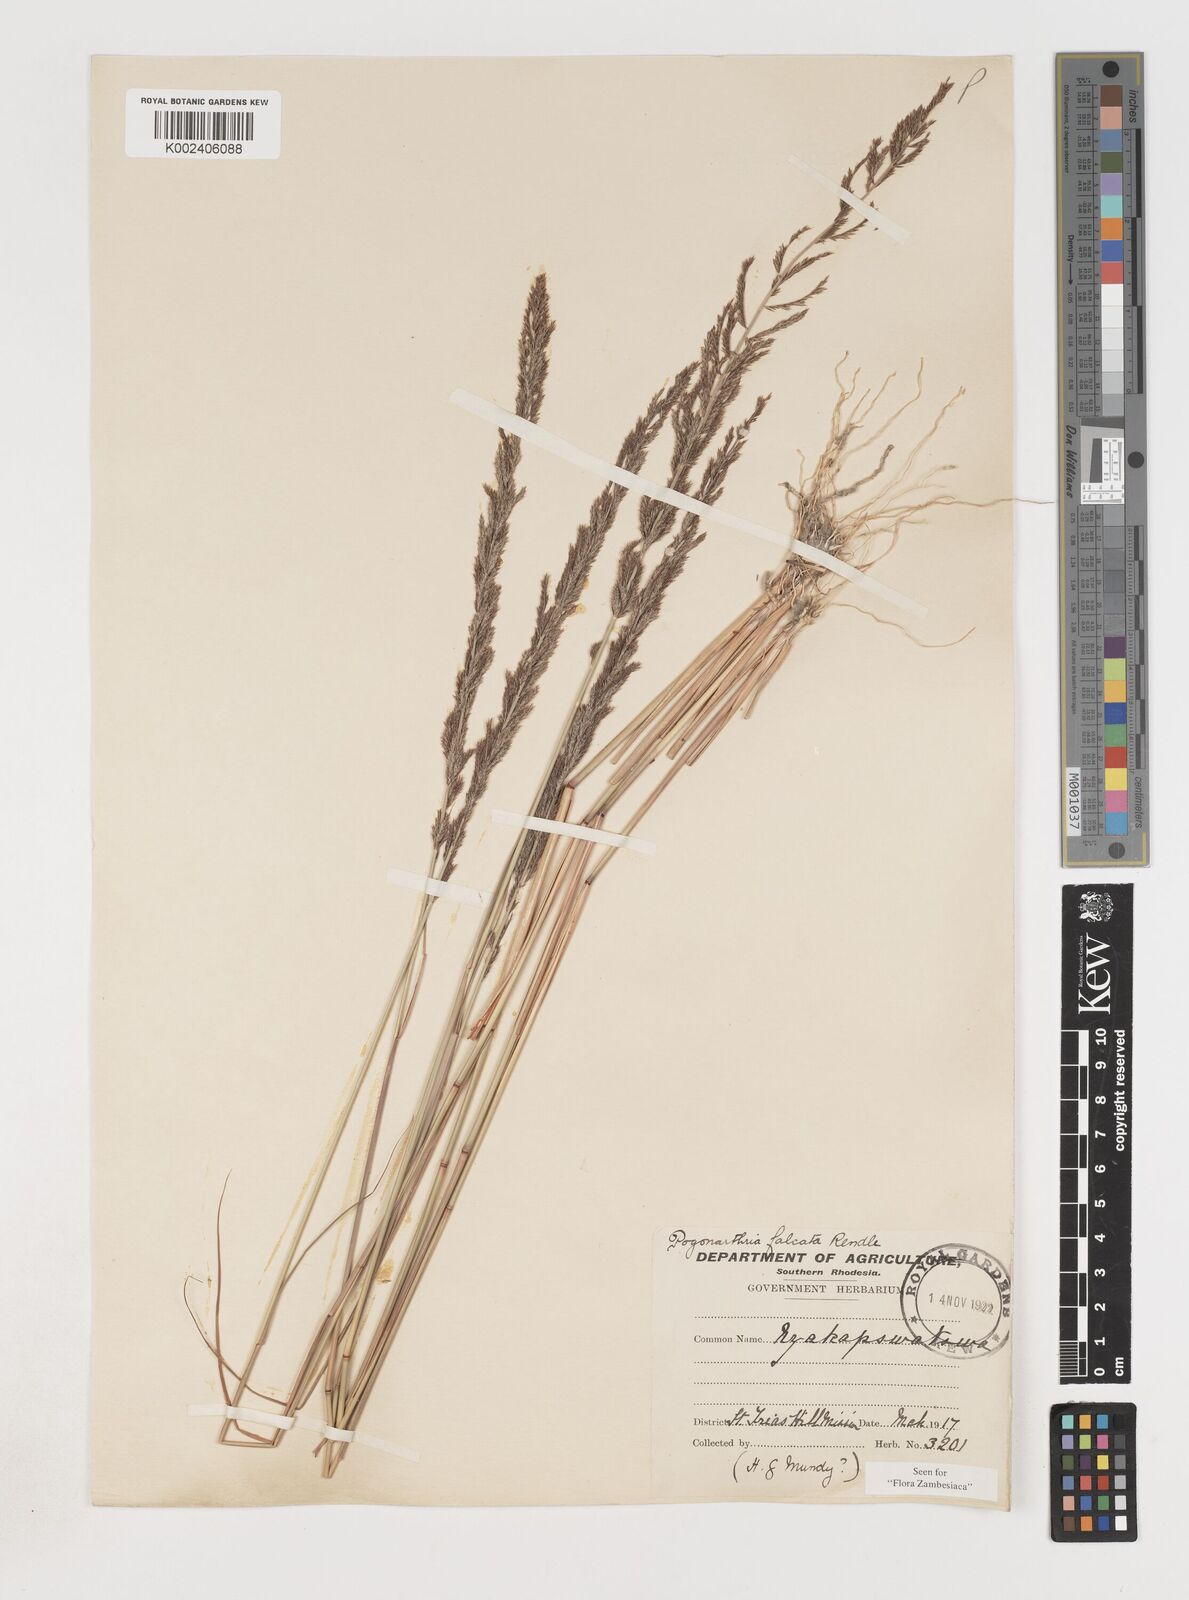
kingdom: Plantae
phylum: Tracheophyta
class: Liliopsida
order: Poales
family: Poaceae
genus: Pogonarthria
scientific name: Pogonarthria squarrosa
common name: Grass
